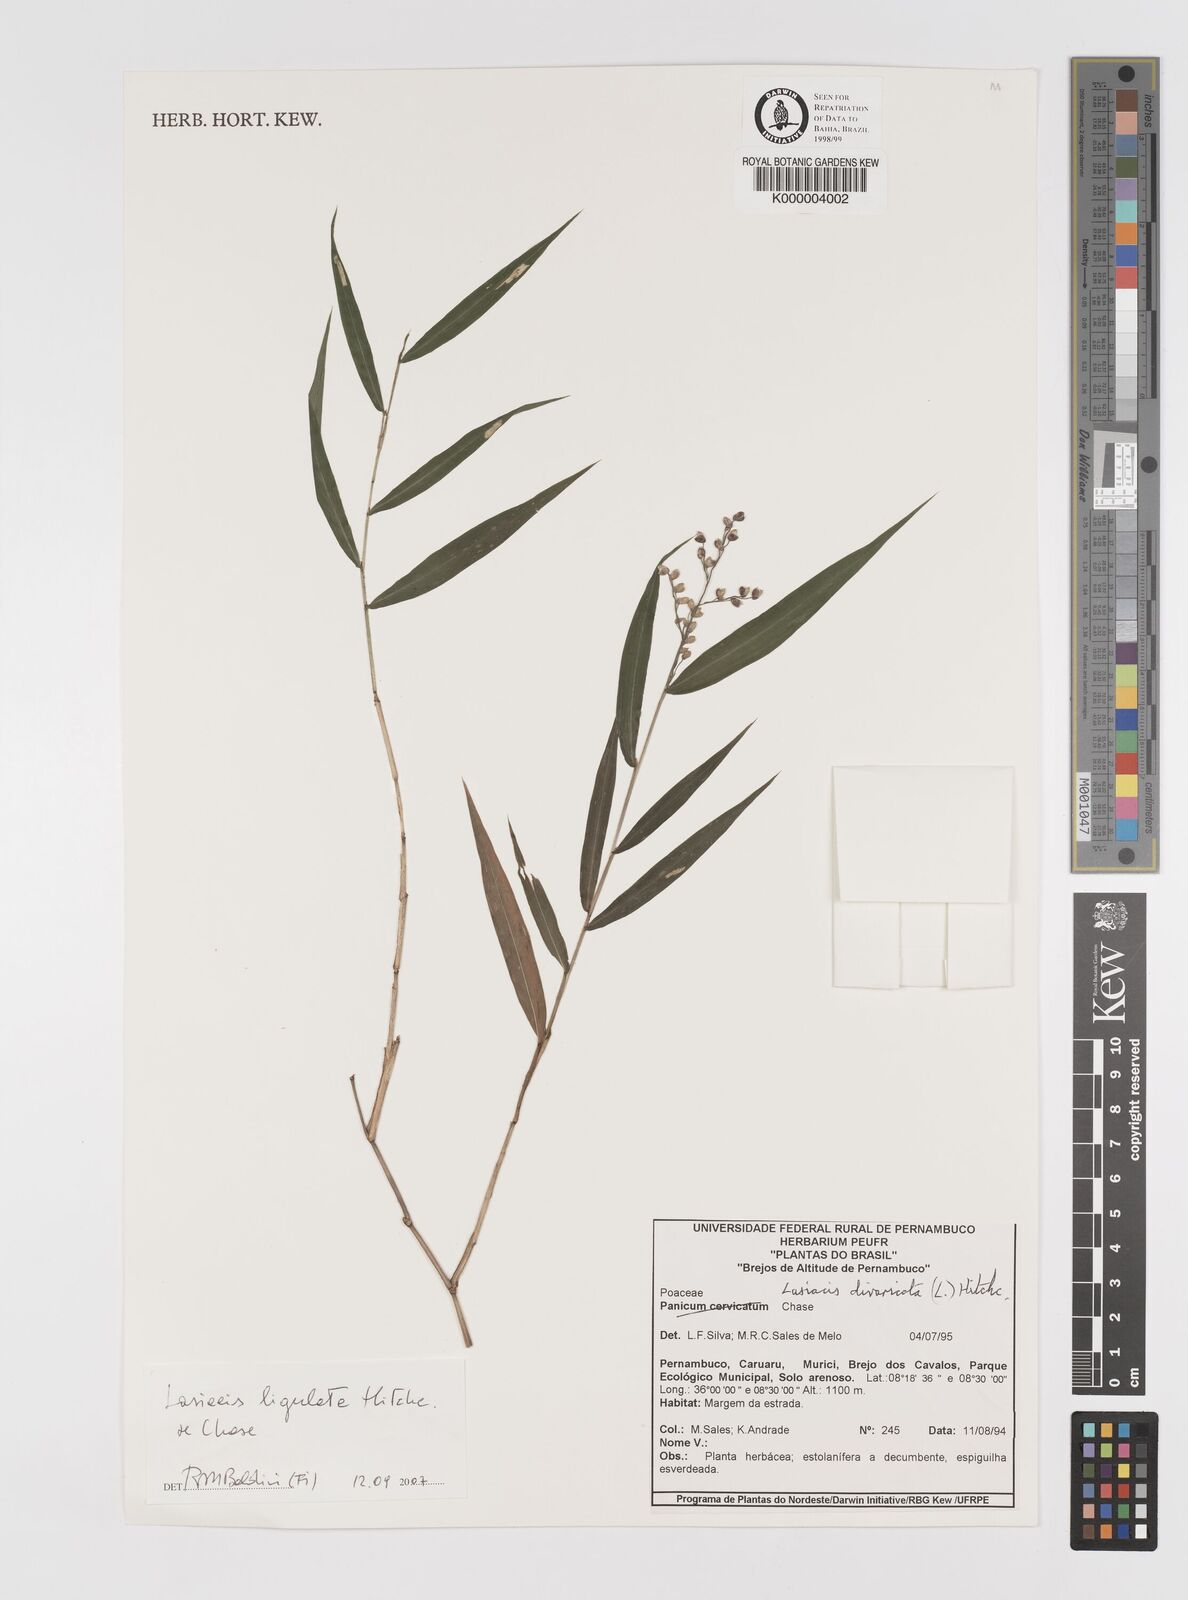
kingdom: Plantae
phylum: Tracheophyta
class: Liliopsida
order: Poales
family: Poaceae
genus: Lasiacis
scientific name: Lasiacis divaricata
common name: Smallcane
